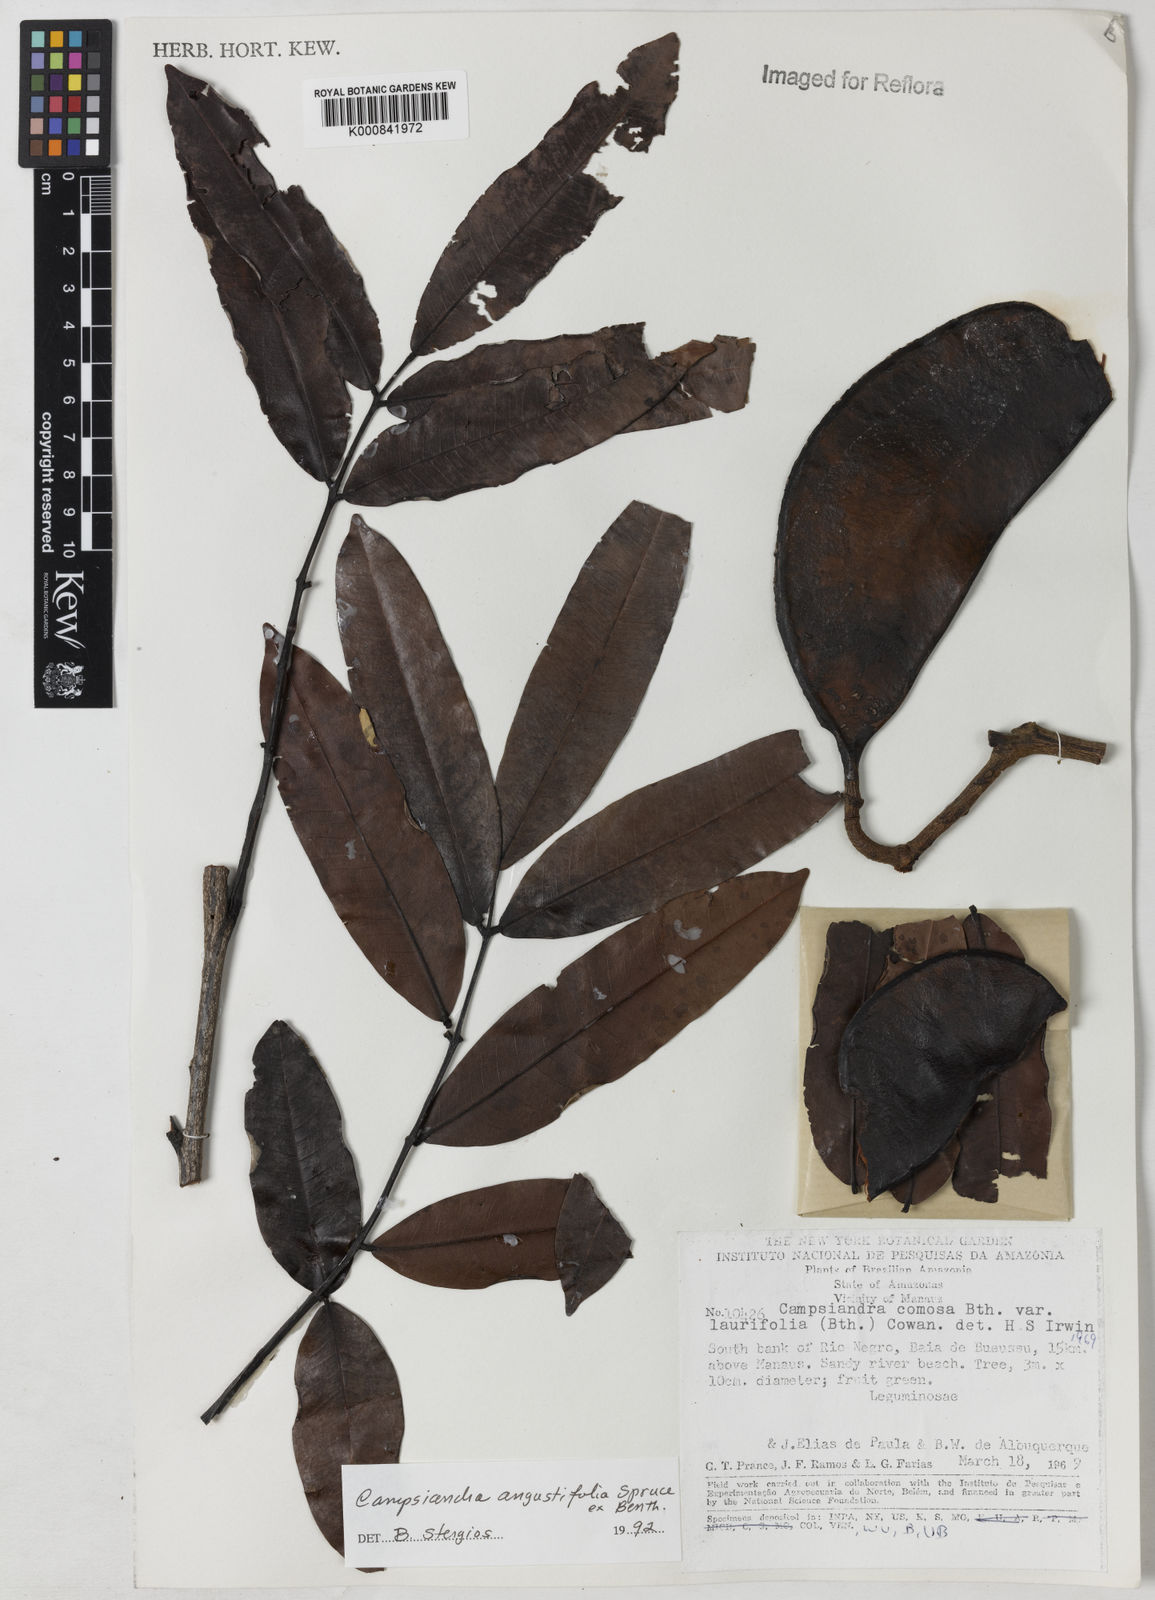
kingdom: Plantae
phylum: Tracheophyta
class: Magnoliopsida
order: Fabales
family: Fabaceae
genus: Campsiandra
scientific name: Campsiandra
